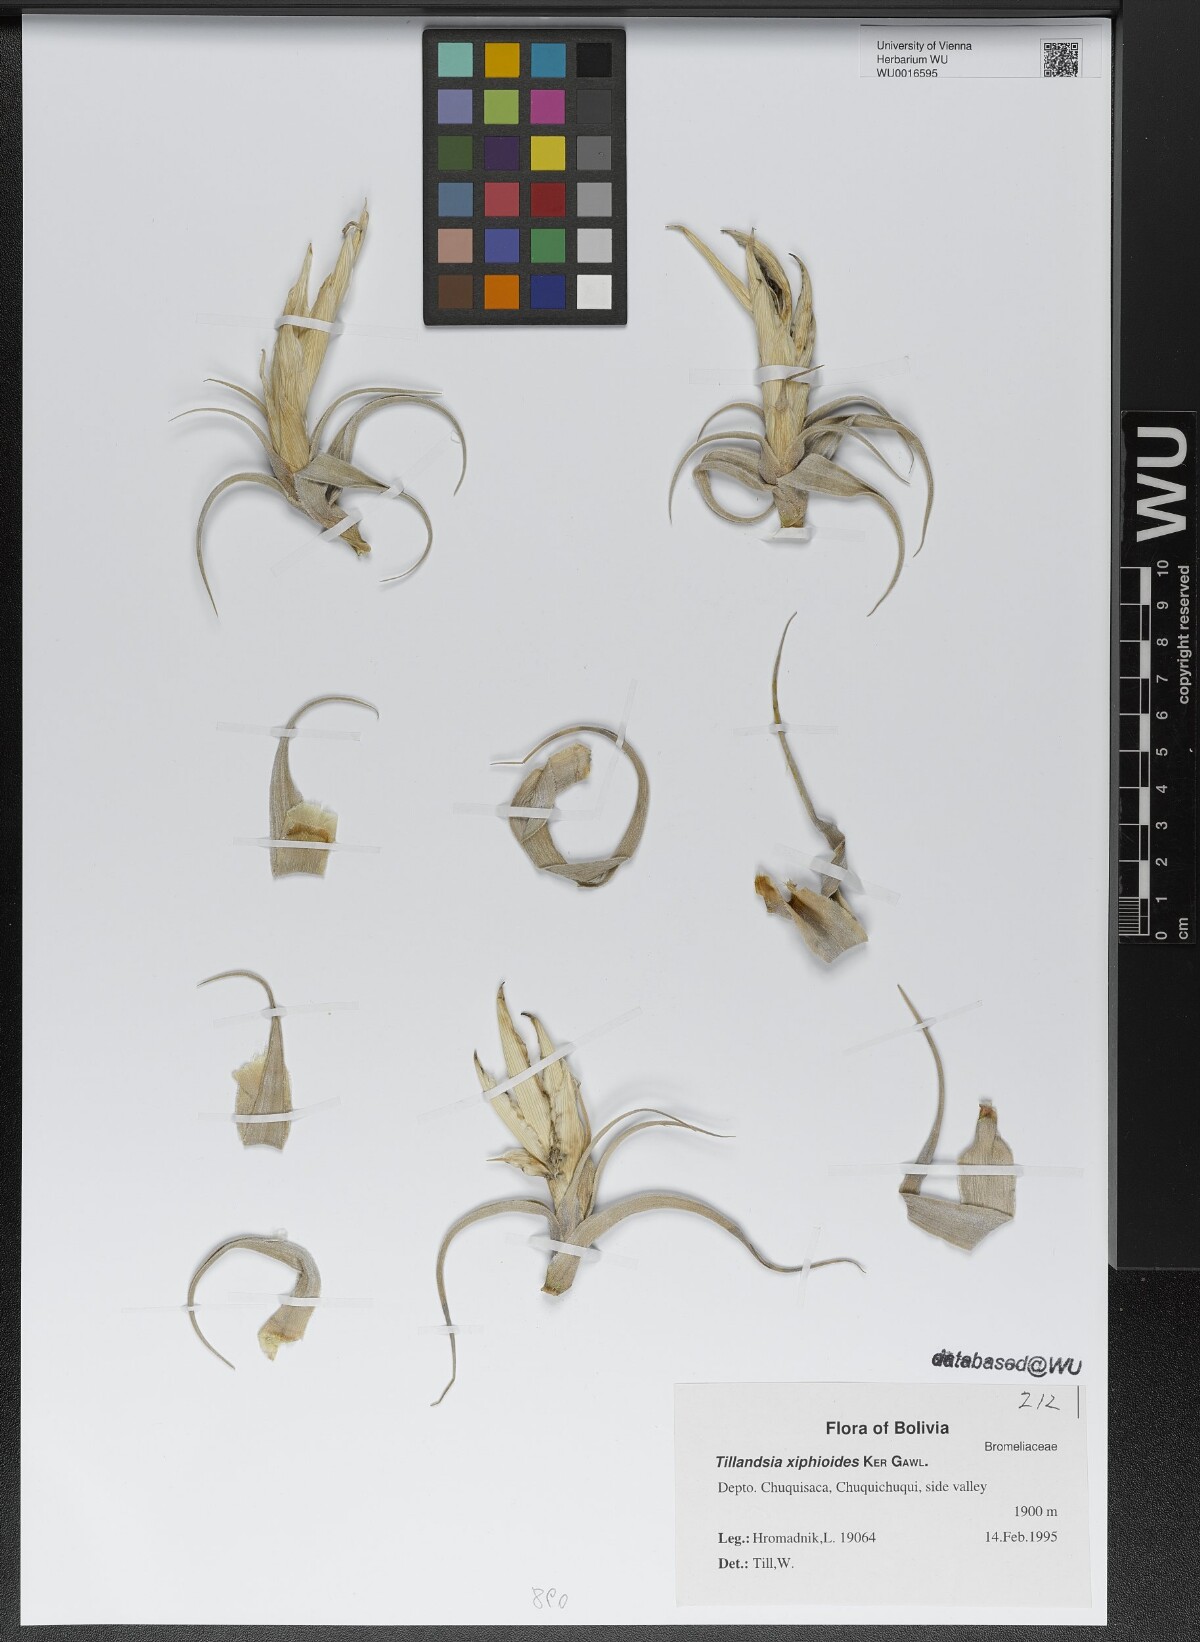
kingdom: Plantae
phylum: Tracheophyta
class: Liliopsida
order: Poales
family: Bromeliaceae
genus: Tillandsia
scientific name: Tillandsia xiphioides
